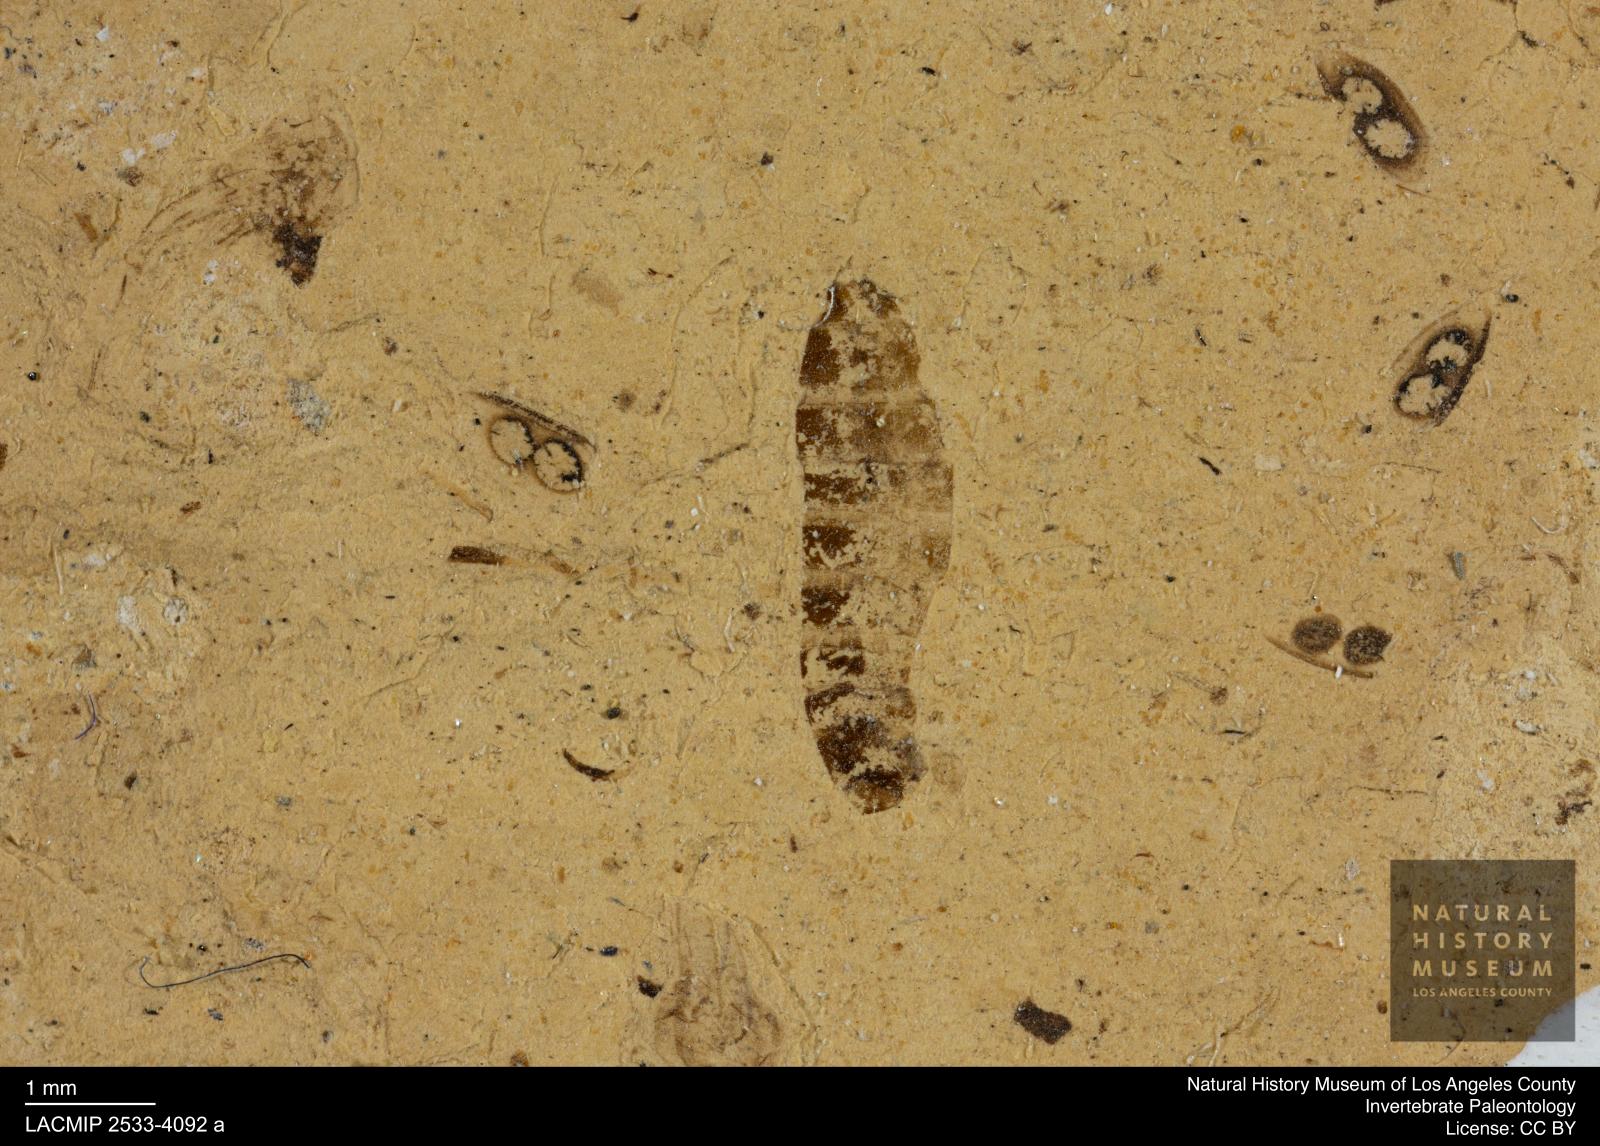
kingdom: Animalia
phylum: Arthropoda
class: Insecta
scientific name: Insecta
